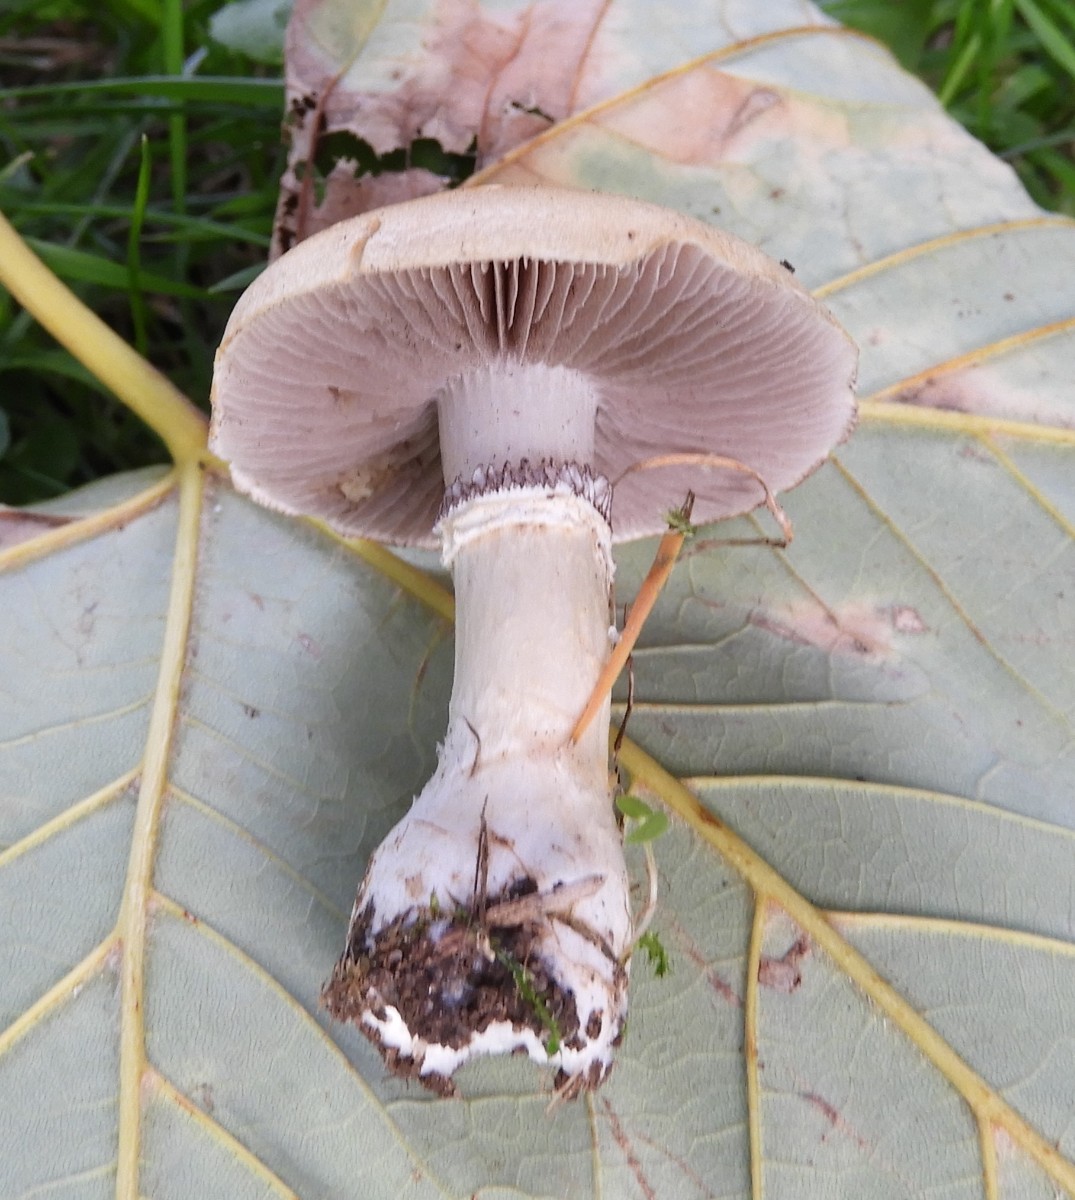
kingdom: Fungi
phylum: Basidiomycota
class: Agaricomycetes
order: Agaricales
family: Hymenogastraceae
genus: Psilocybe
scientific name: Psilocybe coronilla
